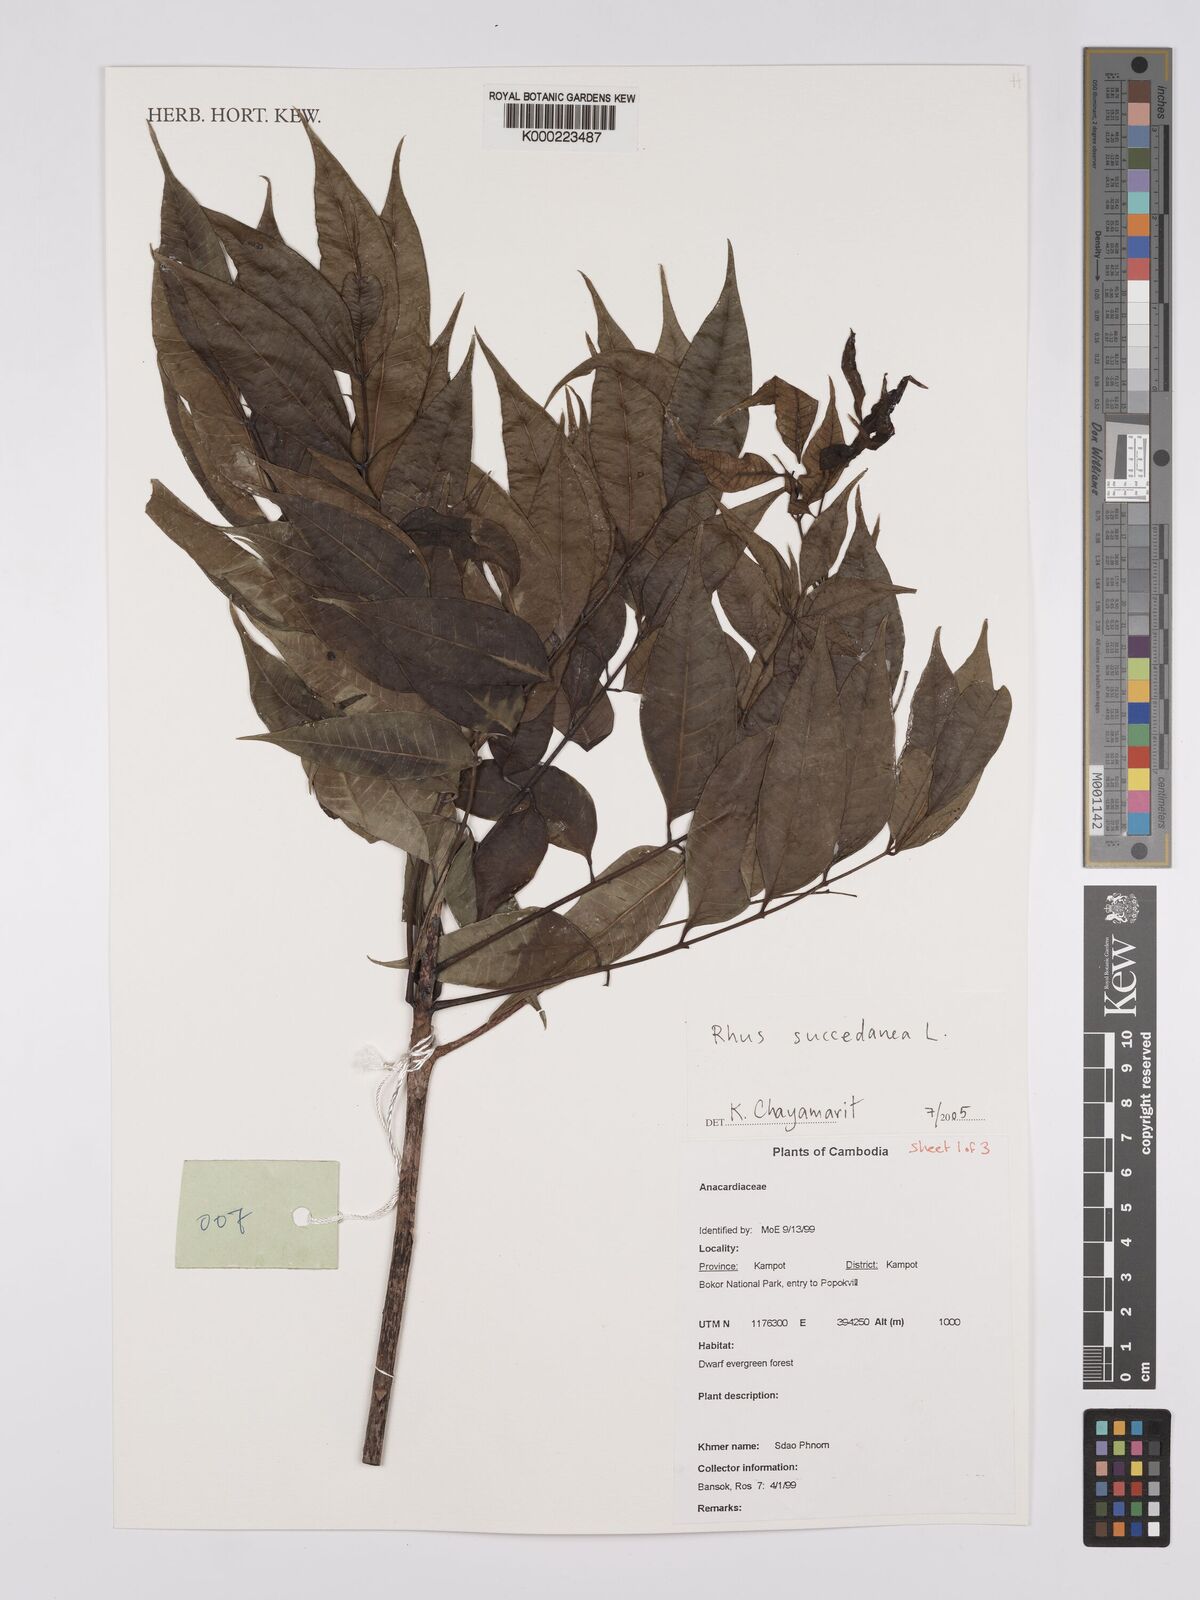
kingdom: Plantae
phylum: Tracheophyta
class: Magnoliopsida
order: Sapindales
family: Anacardiaceae
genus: Toxicodendron
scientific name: Toxicodendron succedaneum
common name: Wax tree
